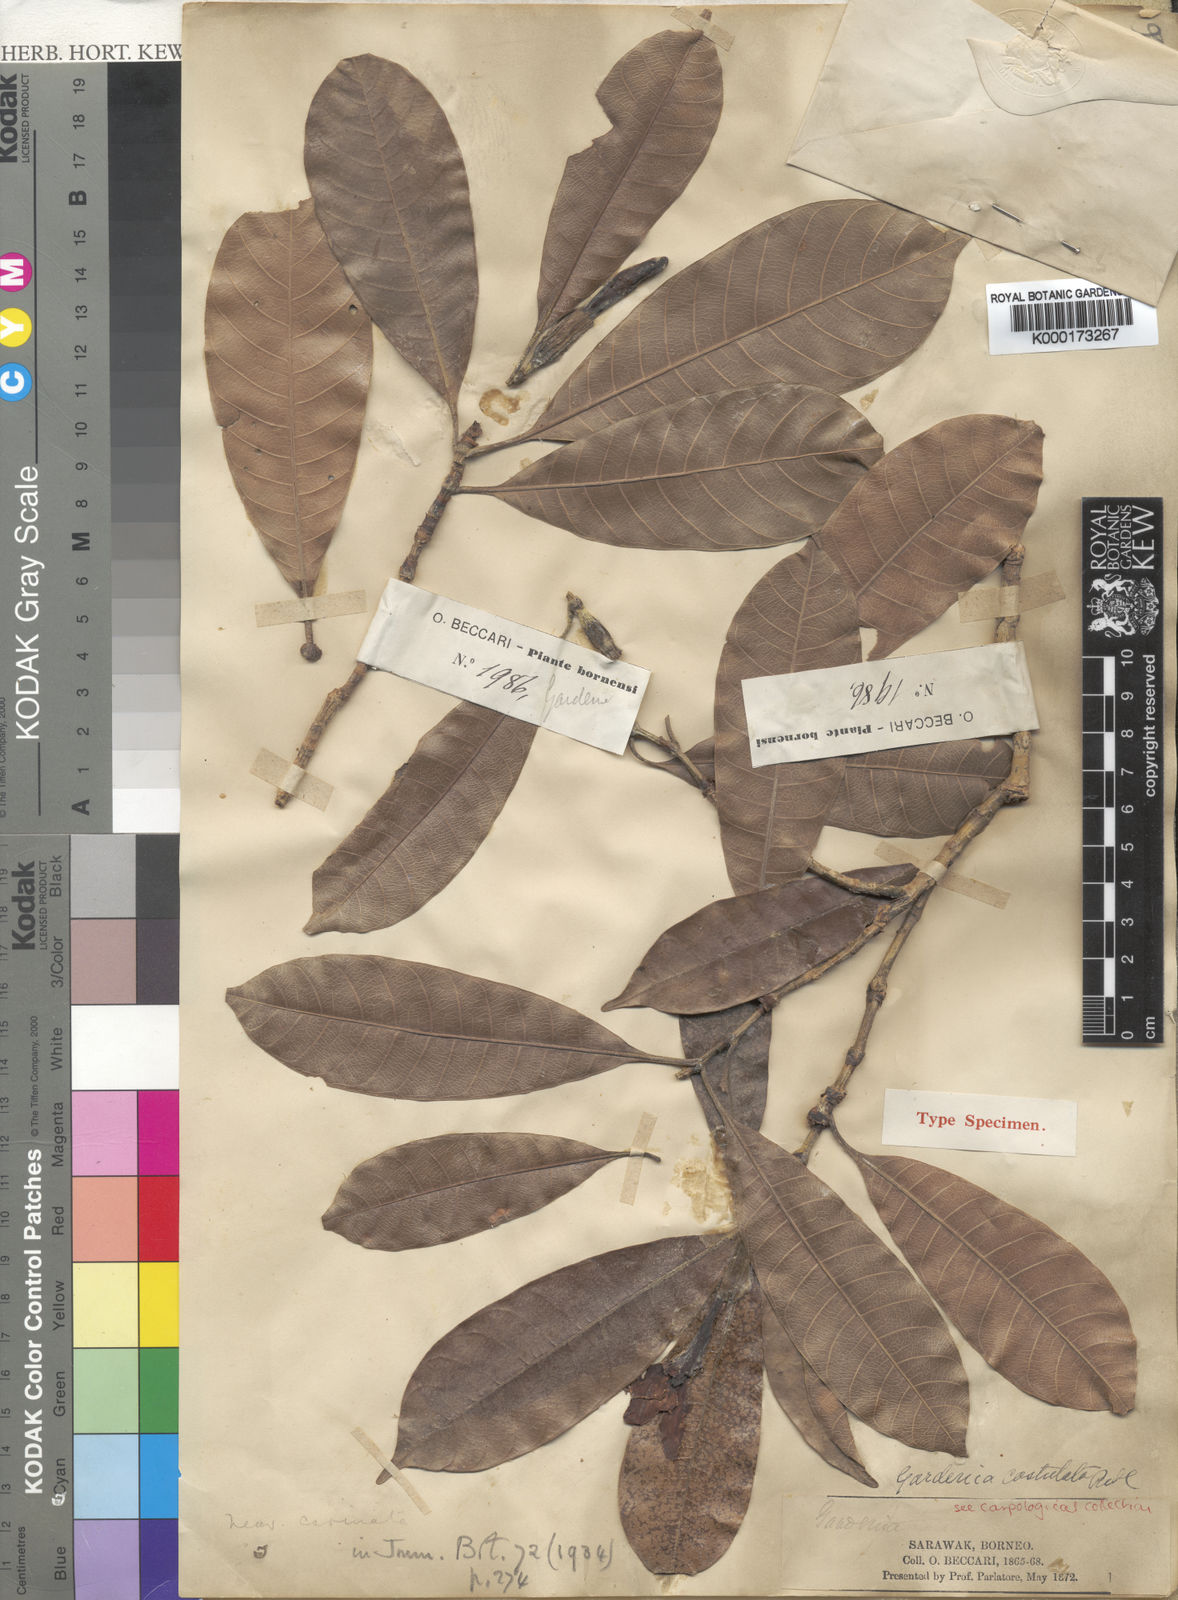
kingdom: Plantae
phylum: Tracheophyta
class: Magnoliopsida
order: Gentianales
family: Rubiaceae
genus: Gardenia
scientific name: Gardenia costulata
